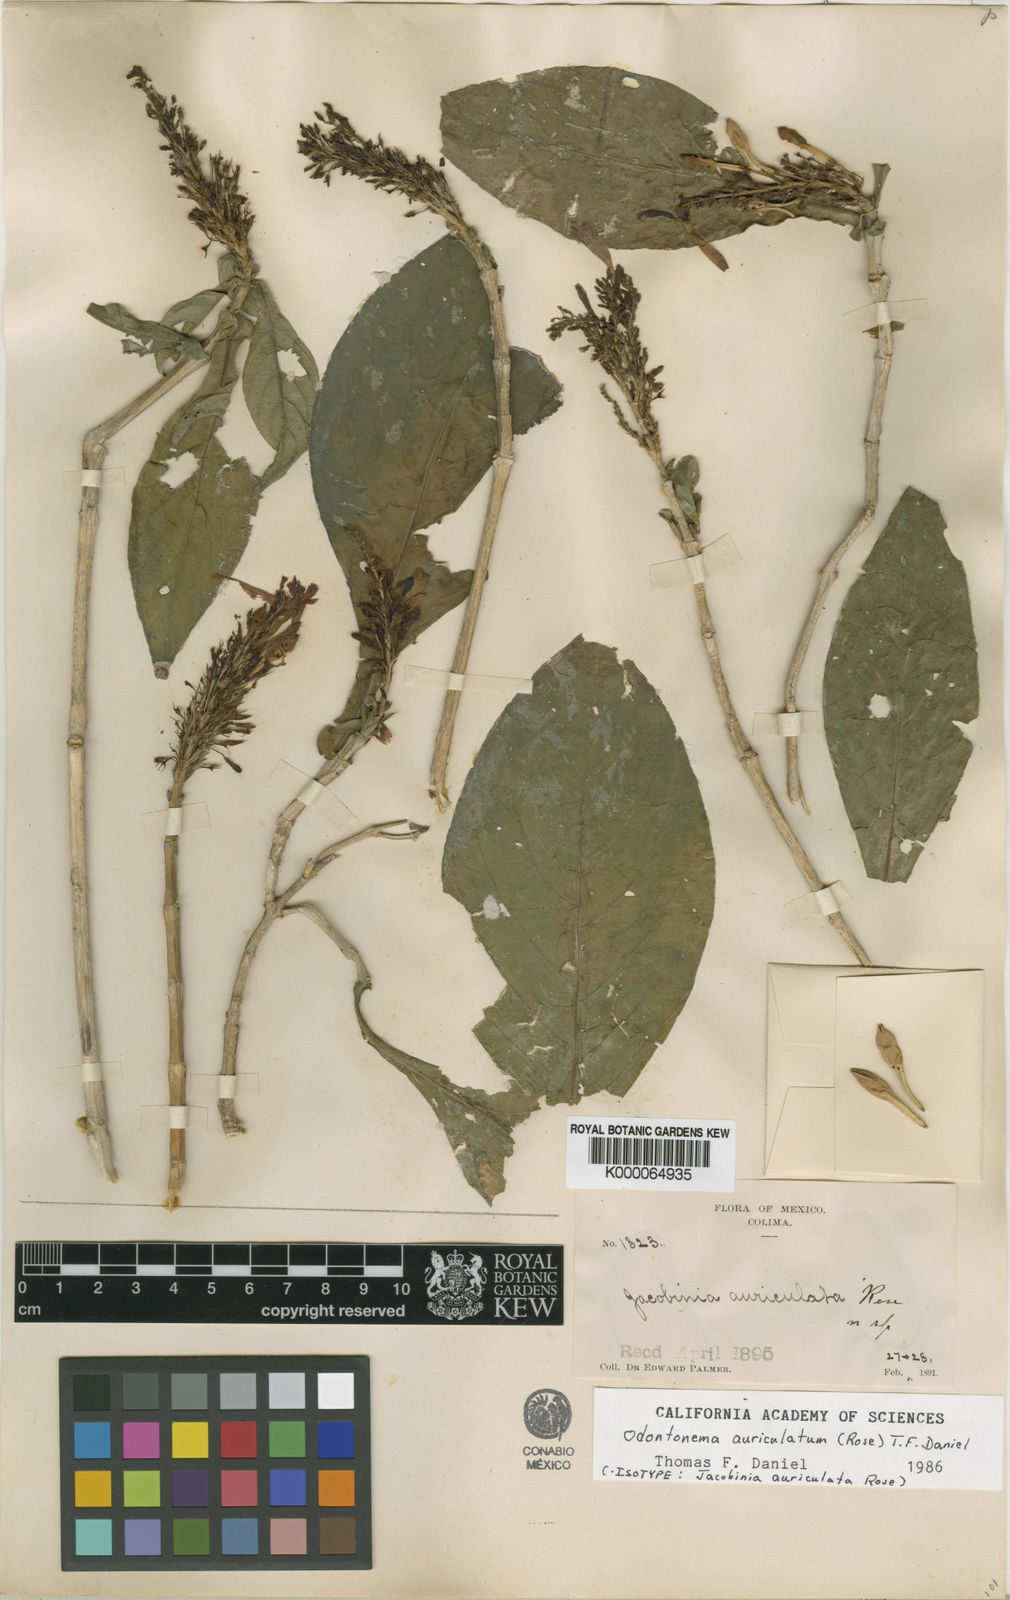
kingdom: Plantae
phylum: Tracheophyta
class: Magnoliopsida
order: Lamiales
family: Acanthaceae
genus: Odontonema
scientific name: Odontonema auriculatum
